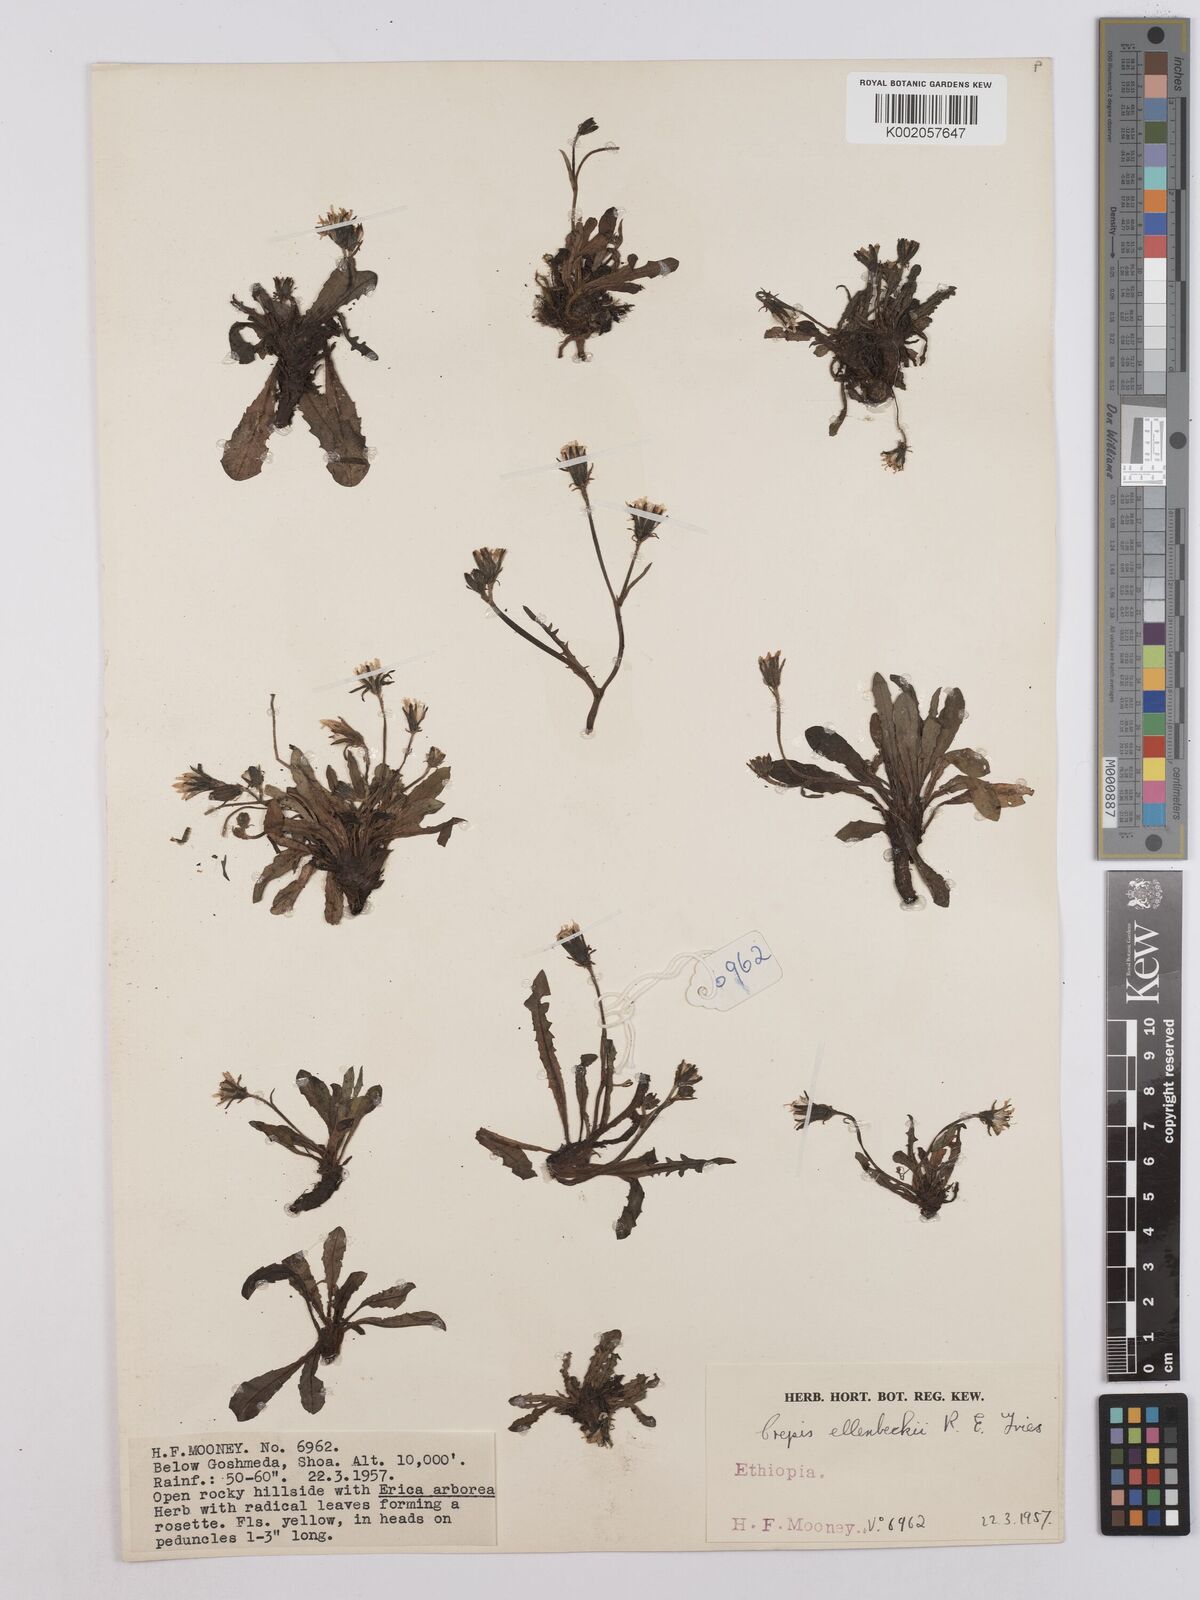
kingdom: Plantae
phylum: Tracheophyta
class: Magnoliopsida
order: Asterales
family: Asteraceae
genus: Crepis
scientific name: Crepis carbonaria
